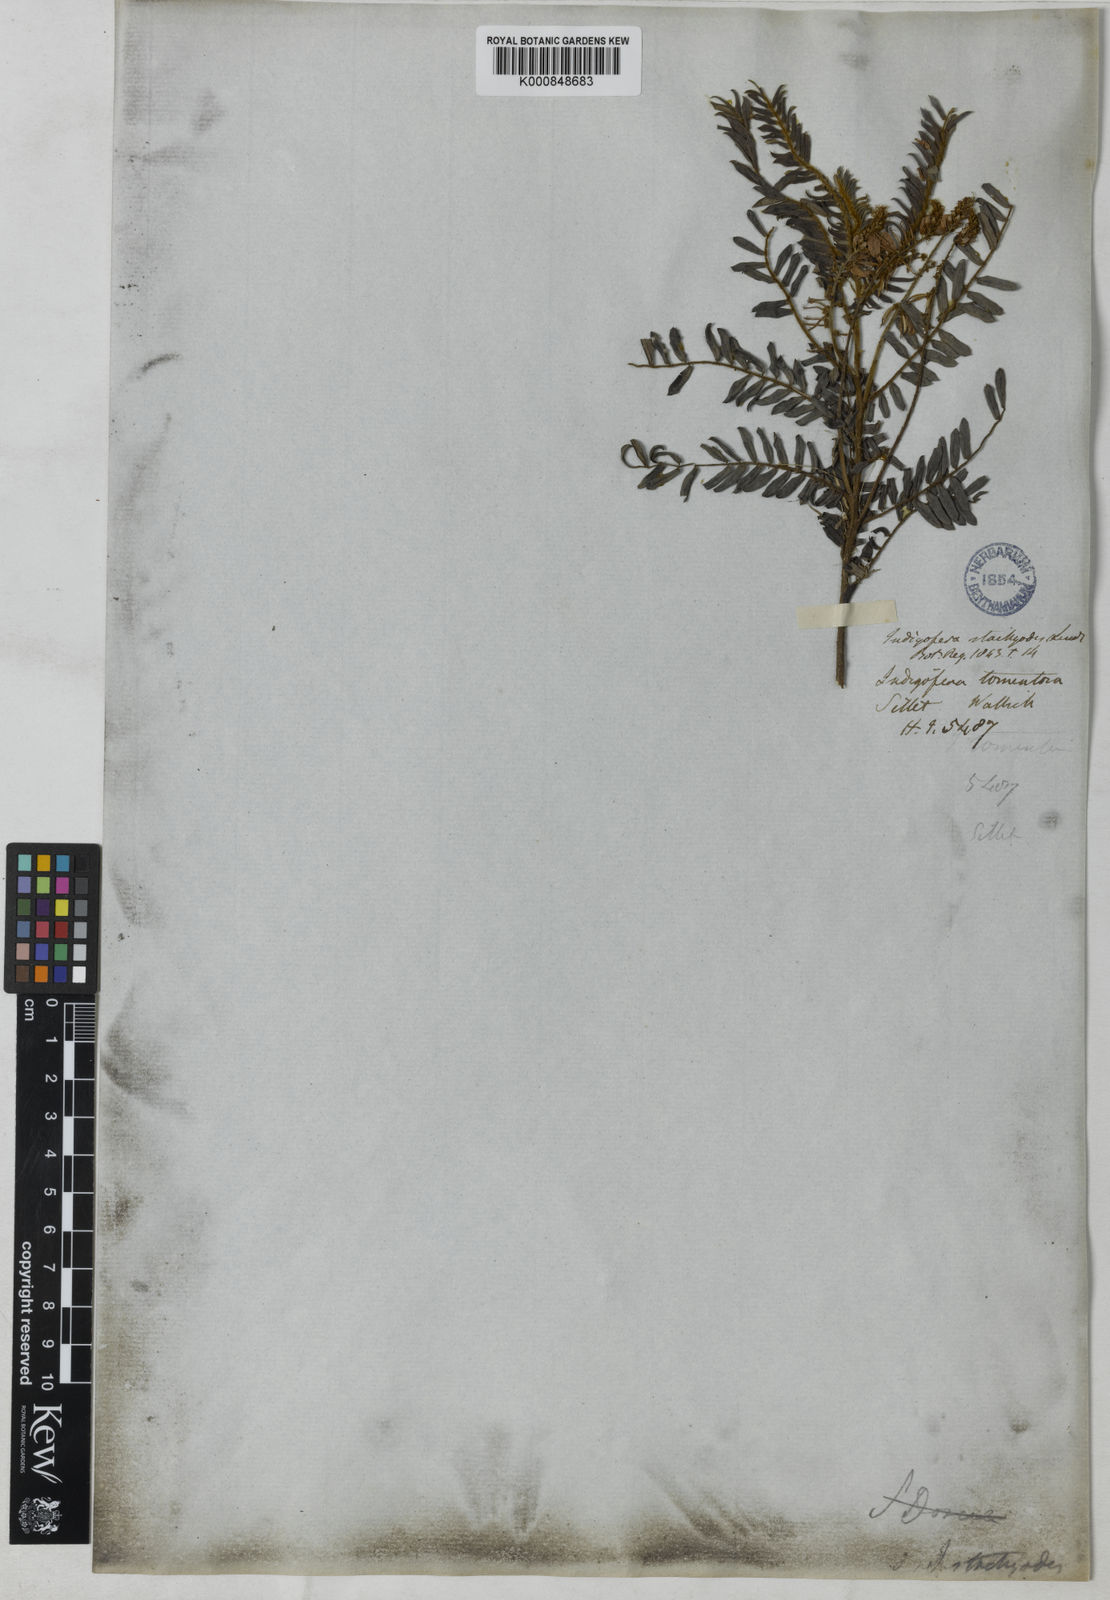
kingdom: Plantae
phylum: Tracheophyta
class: Magnoliopsida
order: Fabales
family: Fabaceae
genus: Indigofera
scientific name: Indigofera dosua
